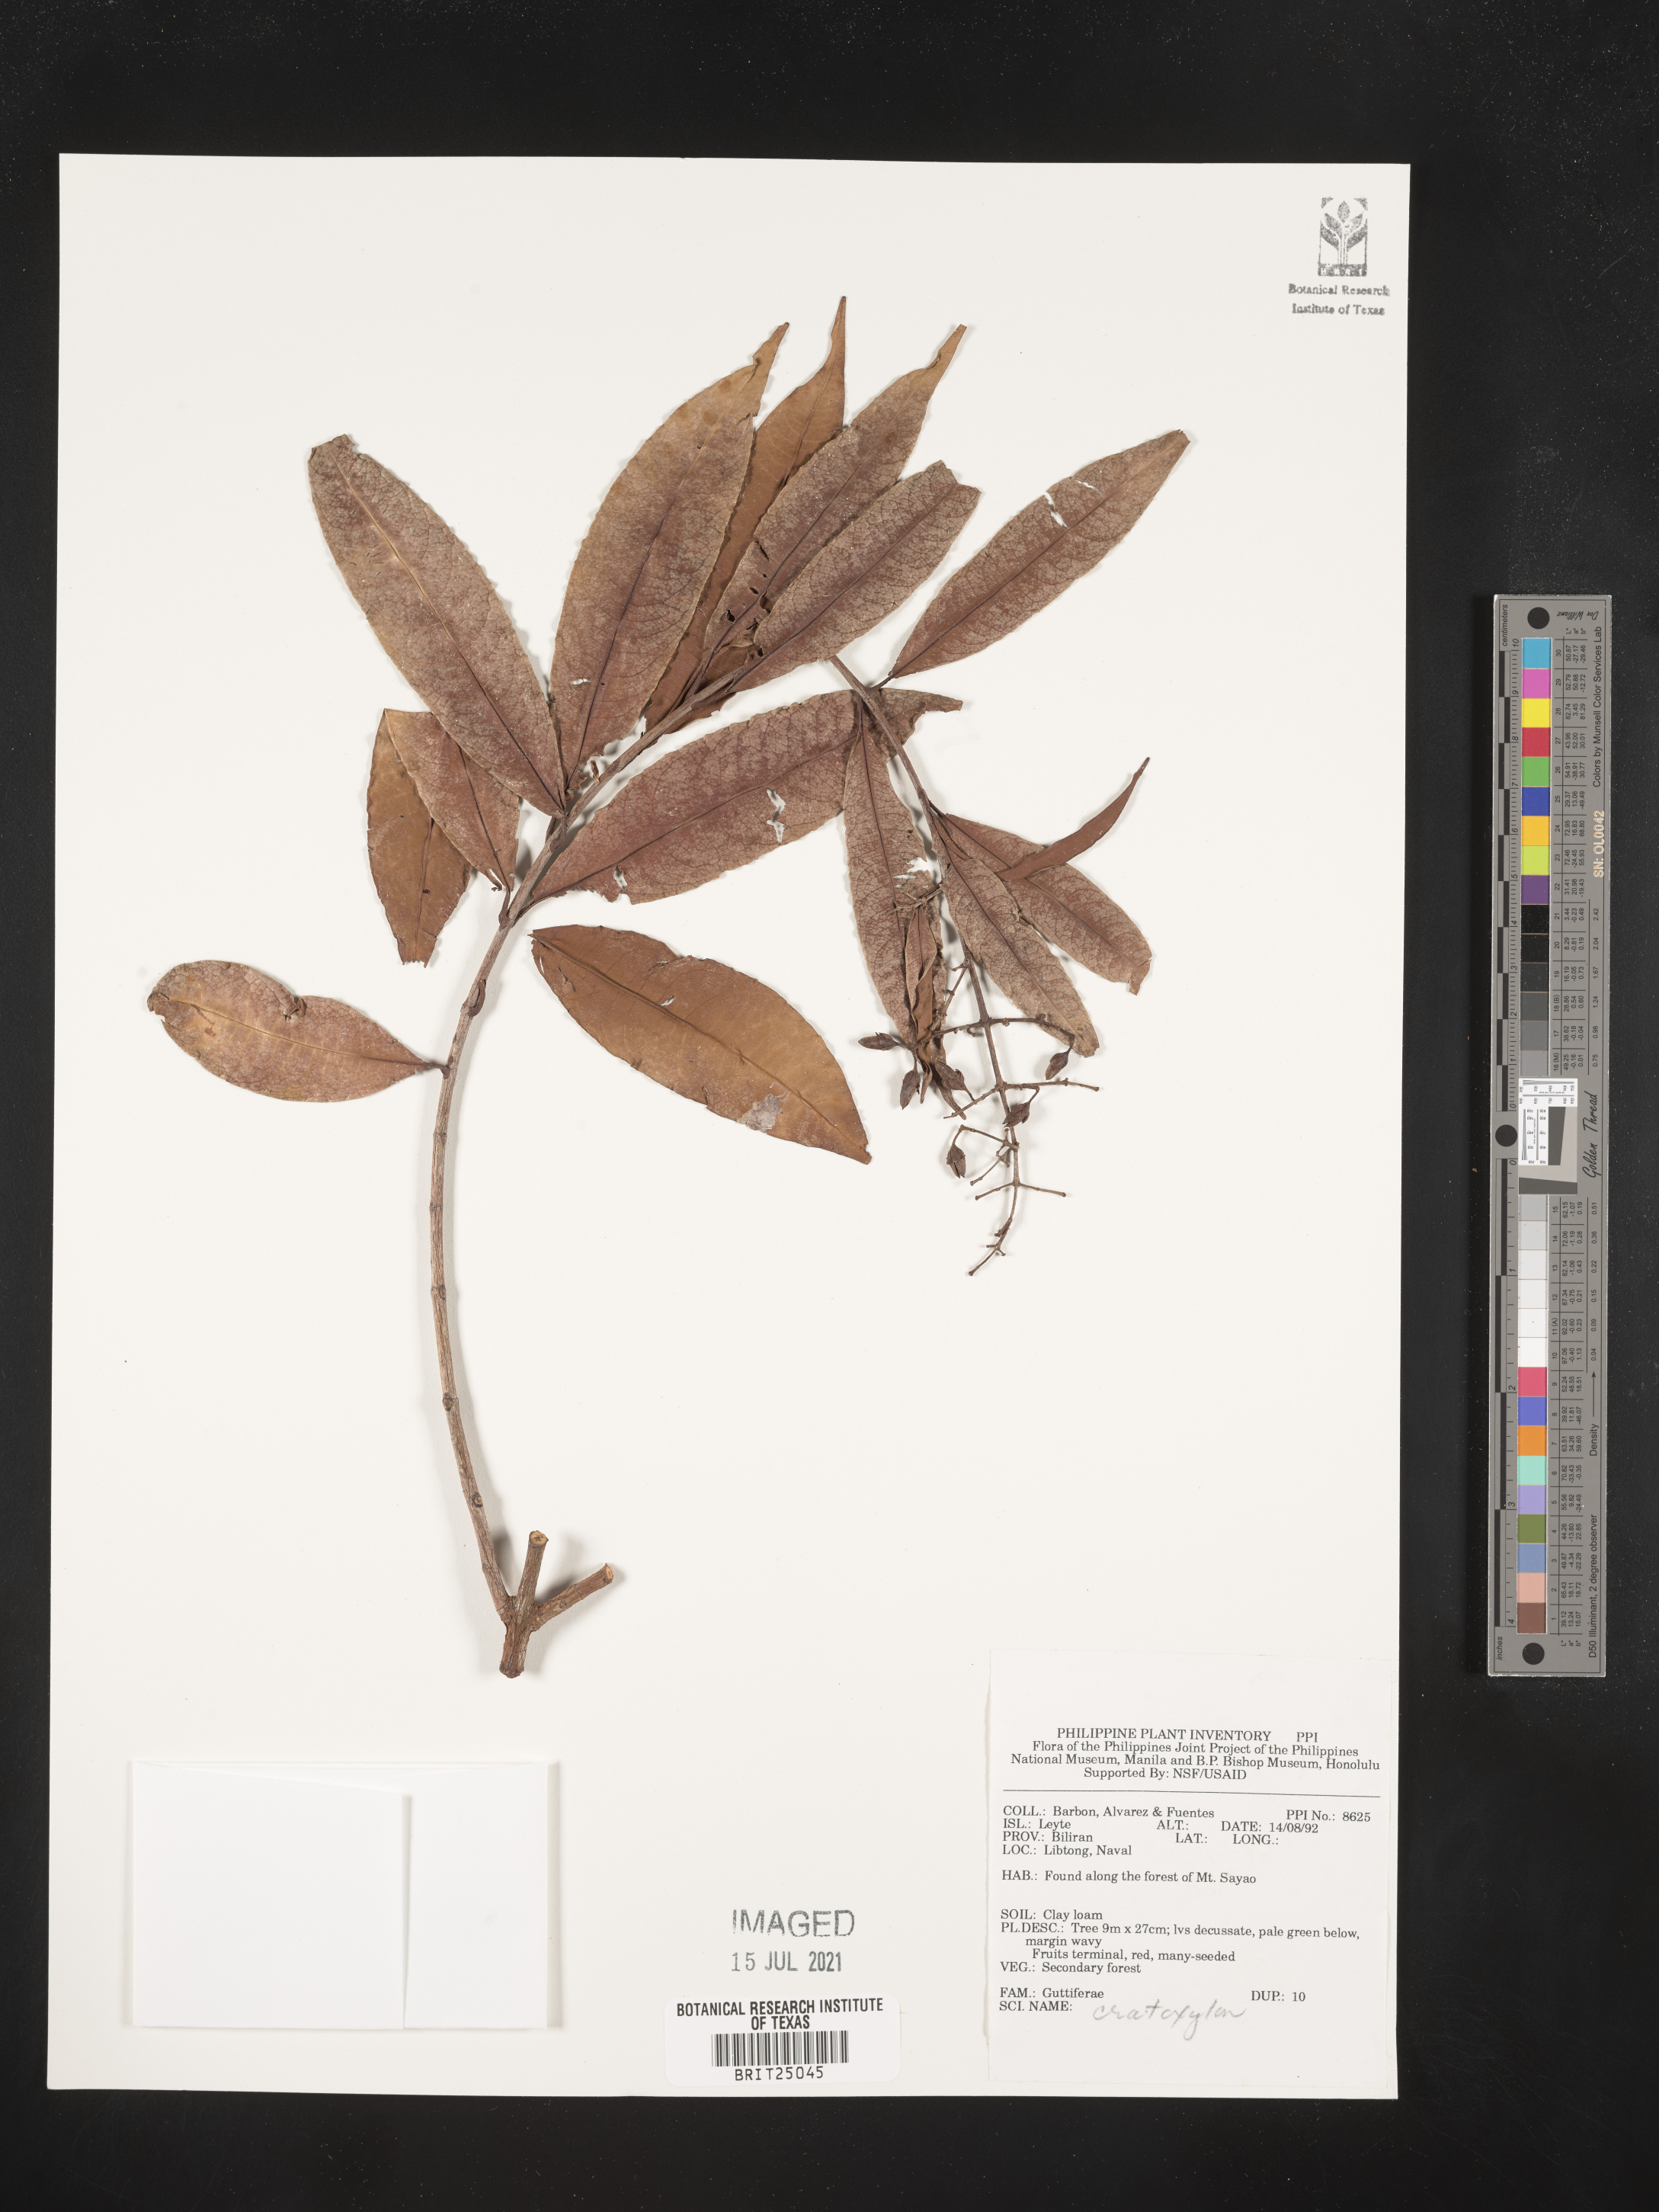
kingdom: Plantae
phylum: Tracheophyta
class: Magnoliopsida
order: Malpighiales
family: Hypericaceae
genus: Cratoxylum
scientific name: Cratoxylum
